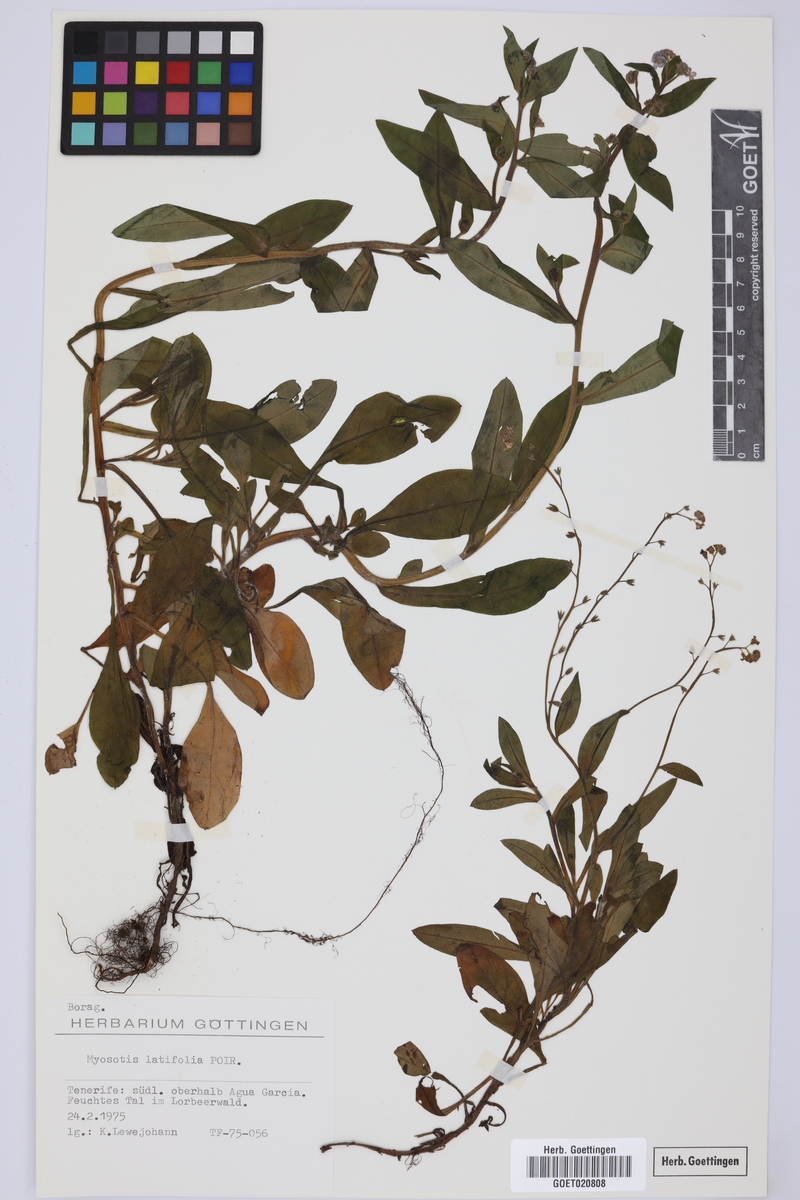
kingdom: Plantae
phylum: Tracheophyta
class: Magnoliopsida
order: Boraginales
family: Boraginaceae
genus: Myosotis
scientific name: Myosotis latifolia
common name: Broadleaf forget-me-not
